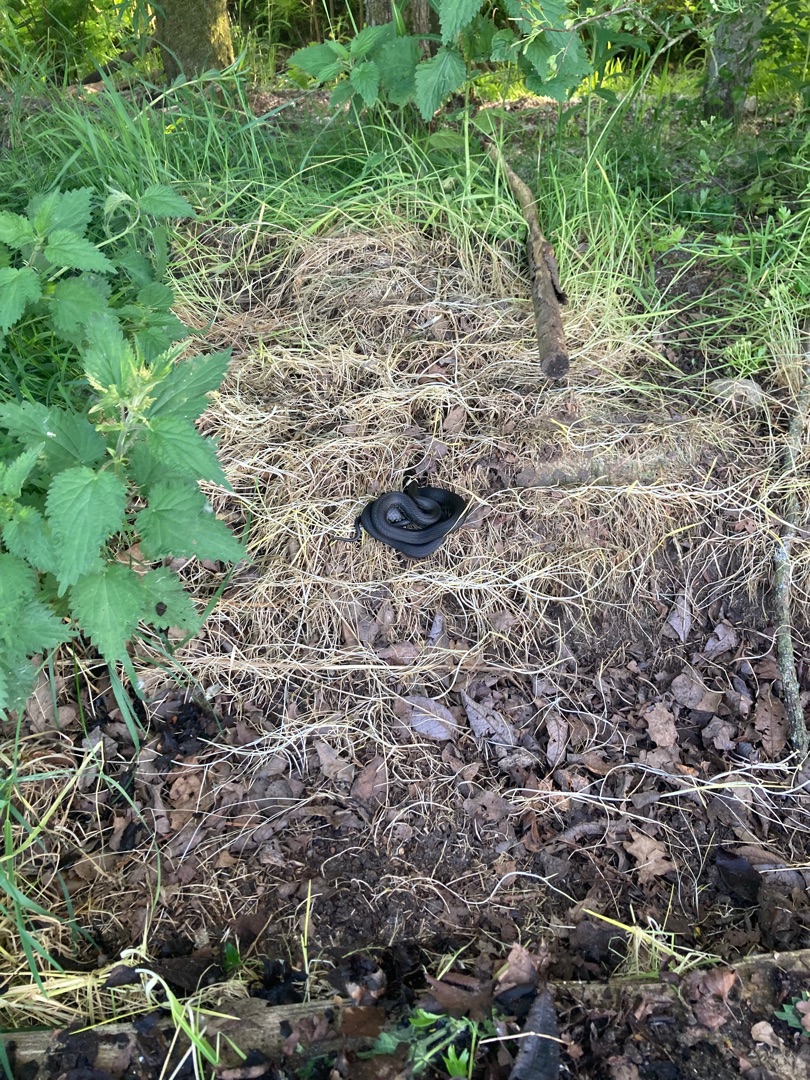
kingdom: Animalia
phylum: Chordata
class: Squamata
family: Colubridae
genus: Natrix
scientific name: Natrix natrix
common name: Snog
